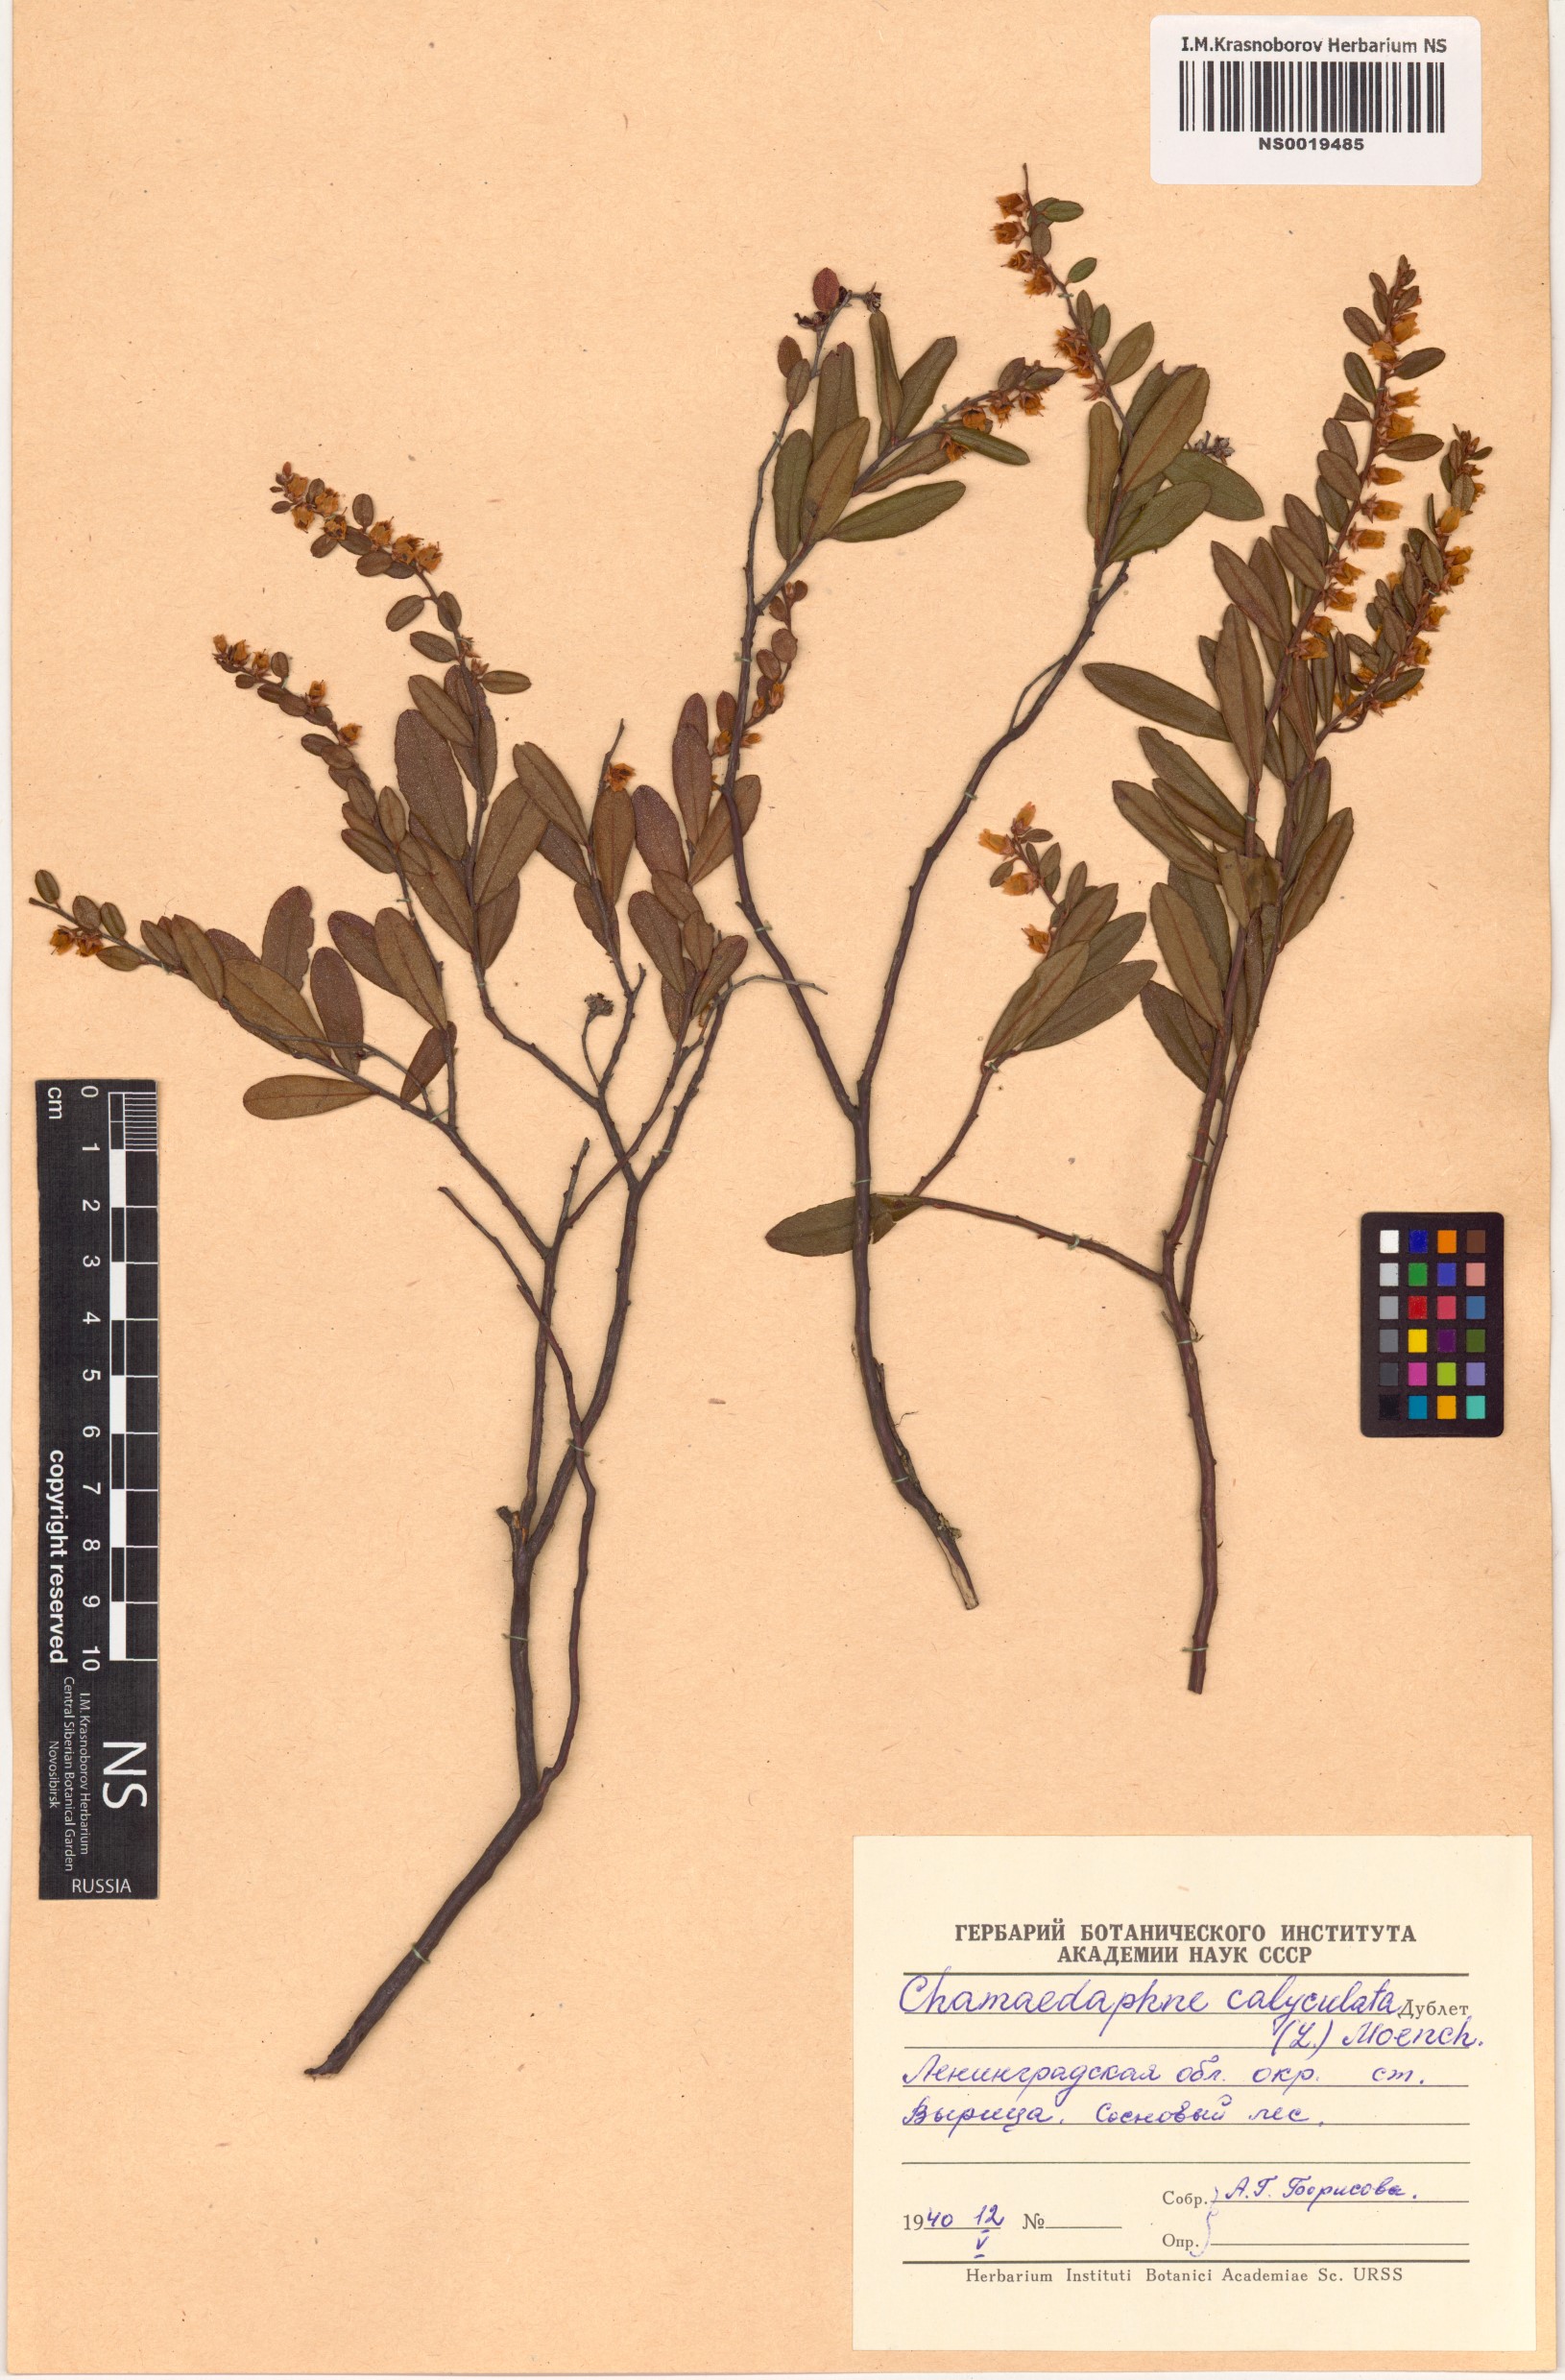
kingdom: Plantae
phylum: Tracheophyta
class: Magnoliopsida
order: Ericales
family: Ericaceae
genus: Chamaedaphne
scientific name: Chamaedaphne calyculata
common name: Leatherleaf
